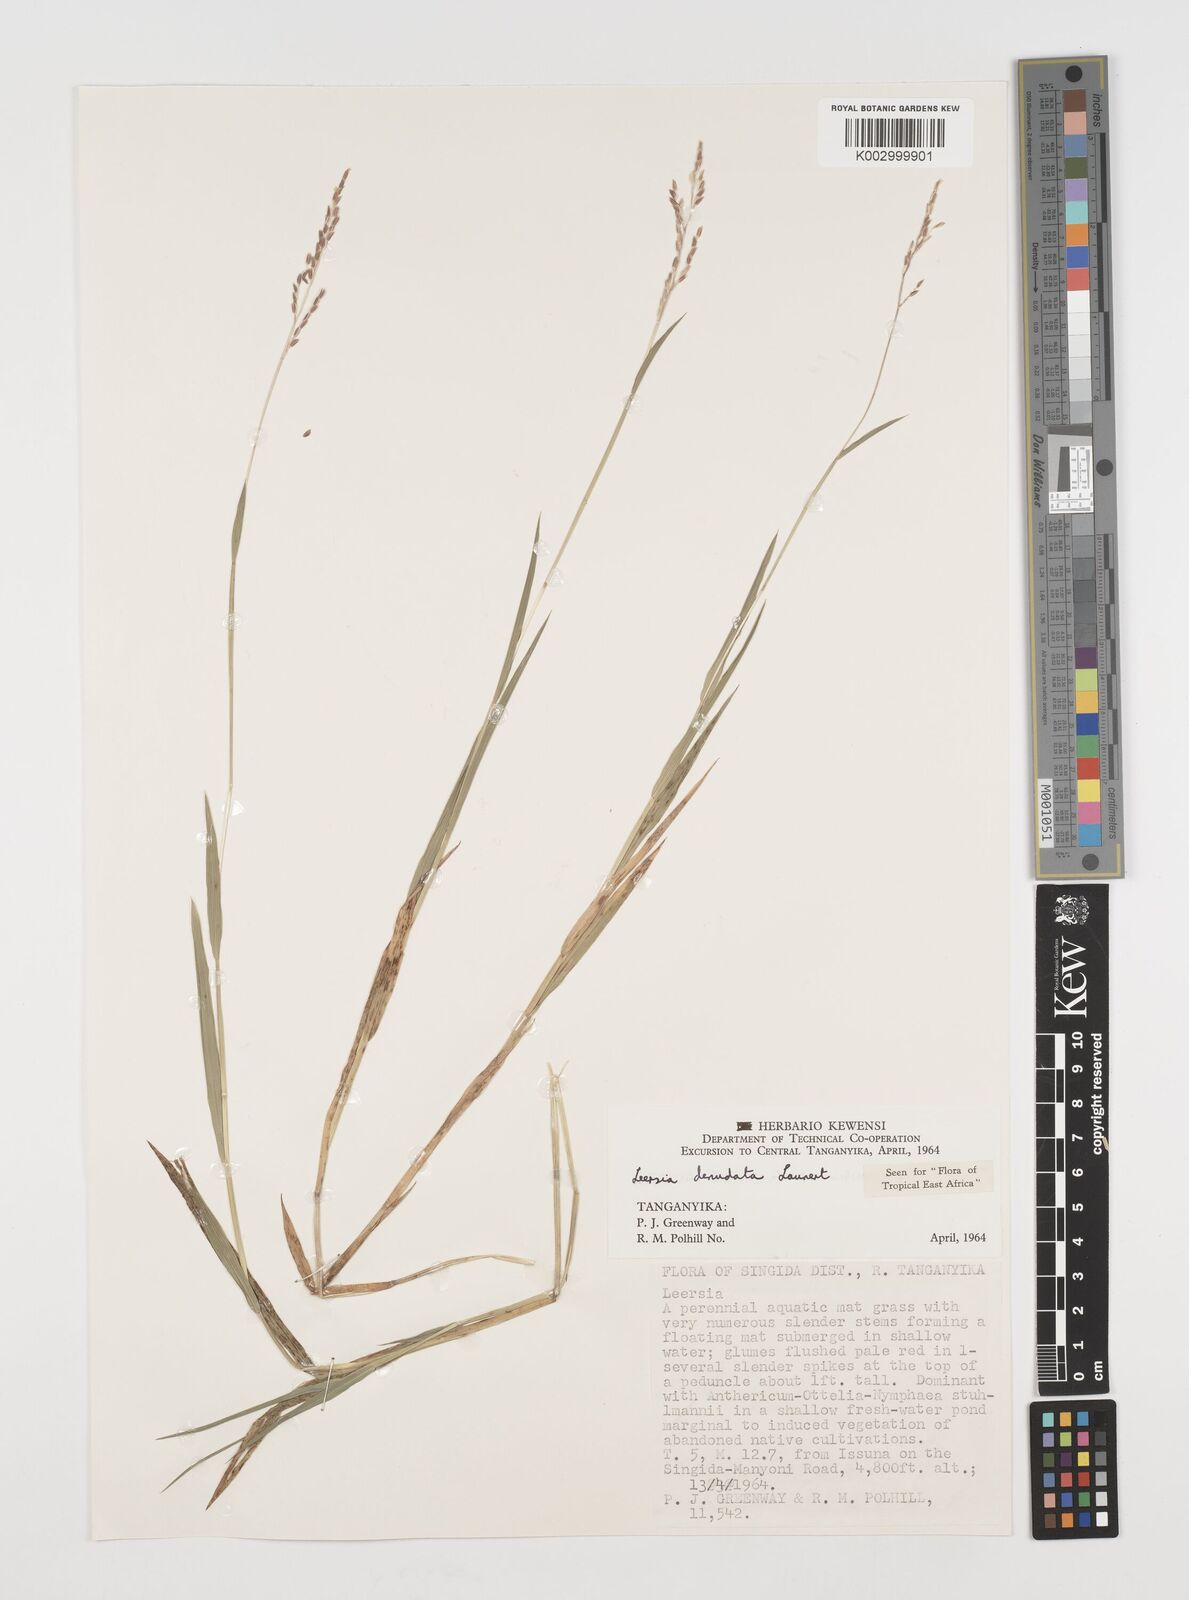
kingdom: Plantae
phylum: Tracheophyta
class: Liliopsida
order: Poales
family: Poaceae
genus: Leersia
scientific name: Leersia denudata
